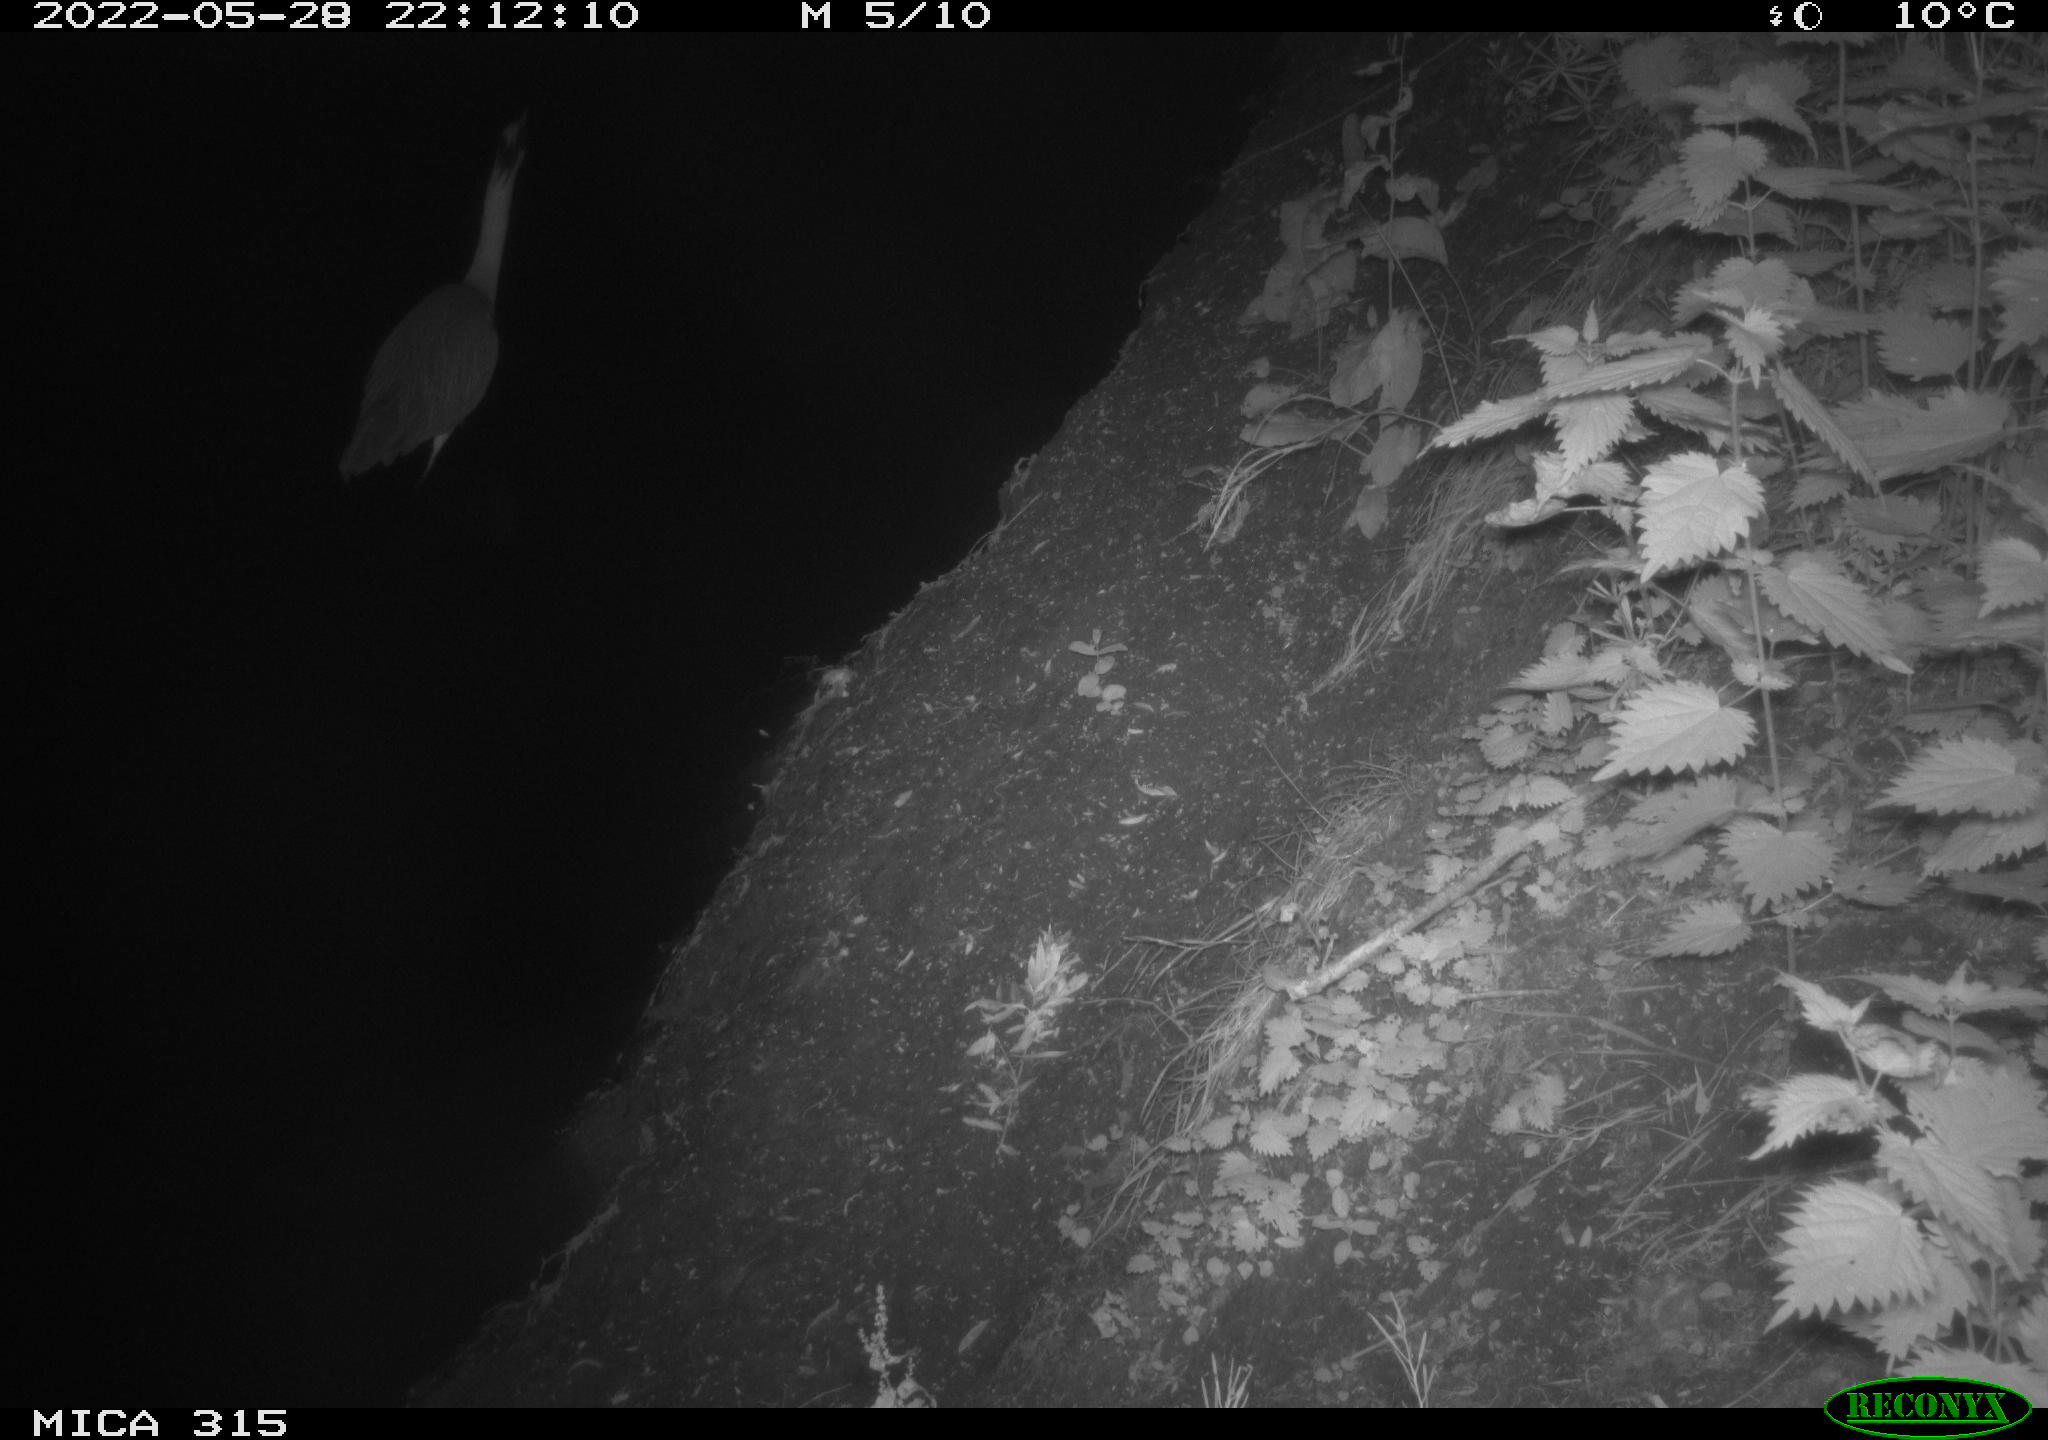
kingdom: Animalia
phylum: Chordata
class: Aves
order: Pelecaniformes
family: Ardeidae
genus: Ardea
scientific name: Ardea cinerea
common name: Grey heron
